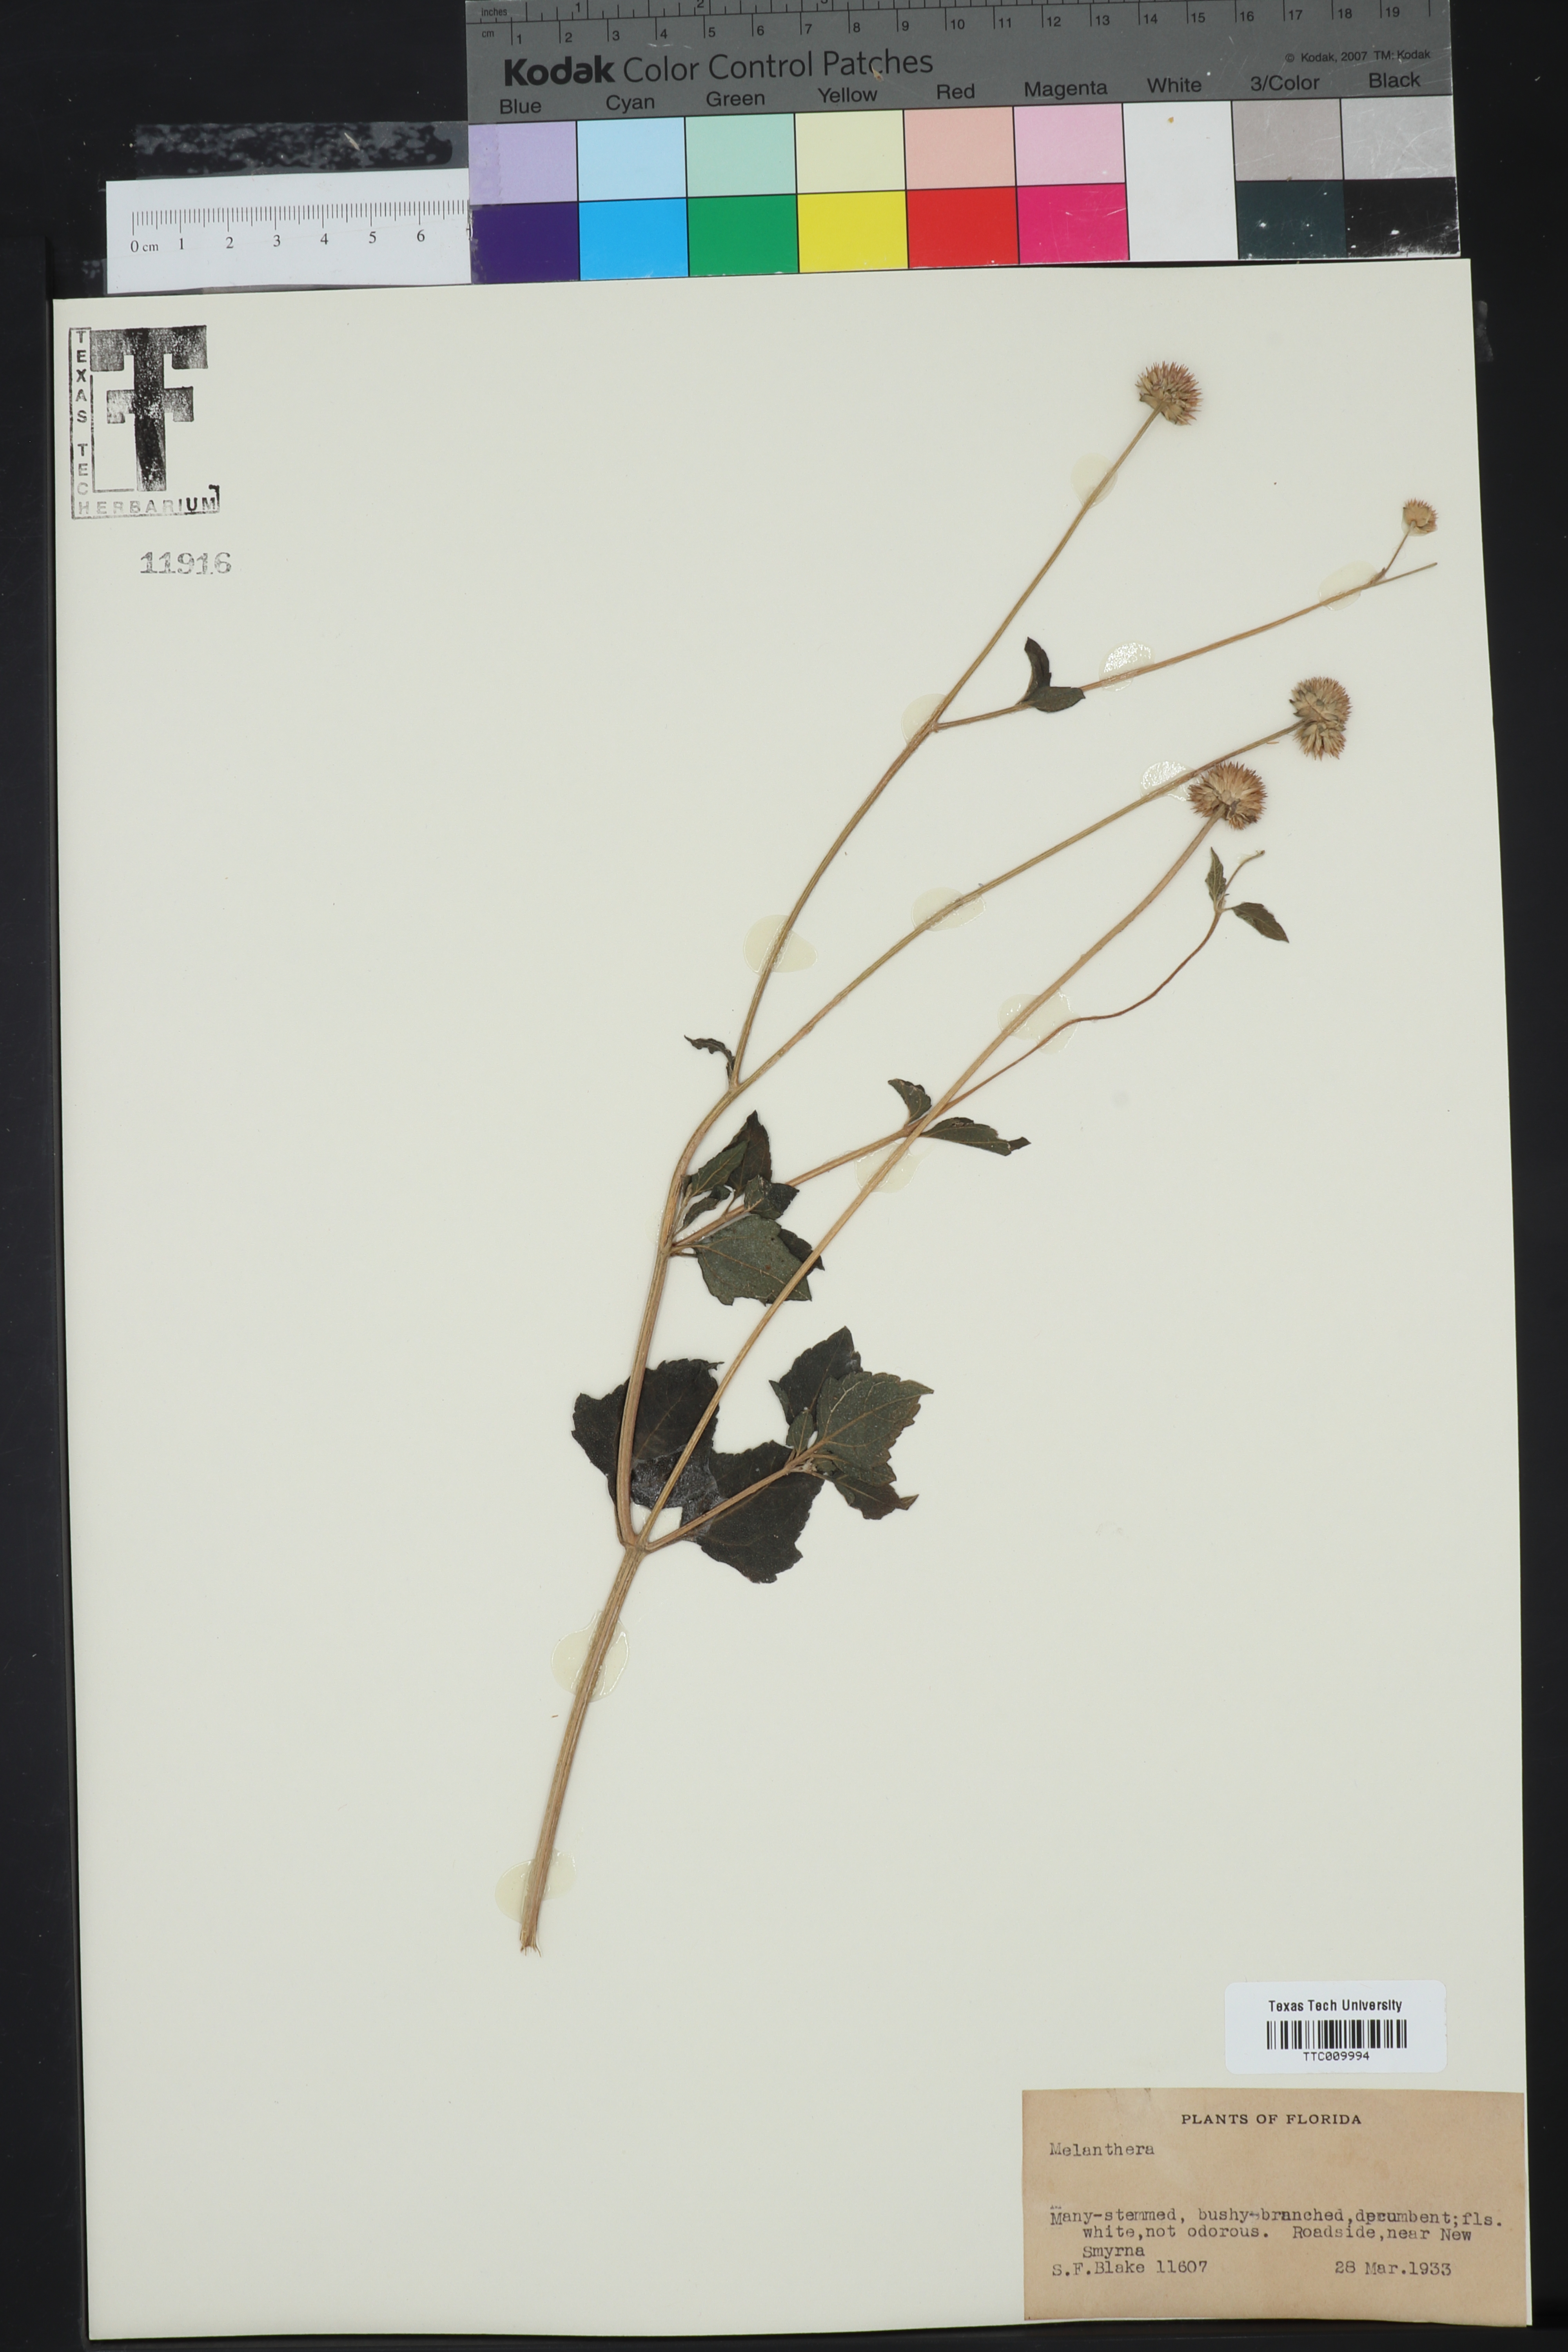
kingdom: Plantae
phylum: Tracheophyta
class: Magnoliopsida
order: Asterales
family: Asteraceae
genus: Melanthera
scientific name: Melanthera
